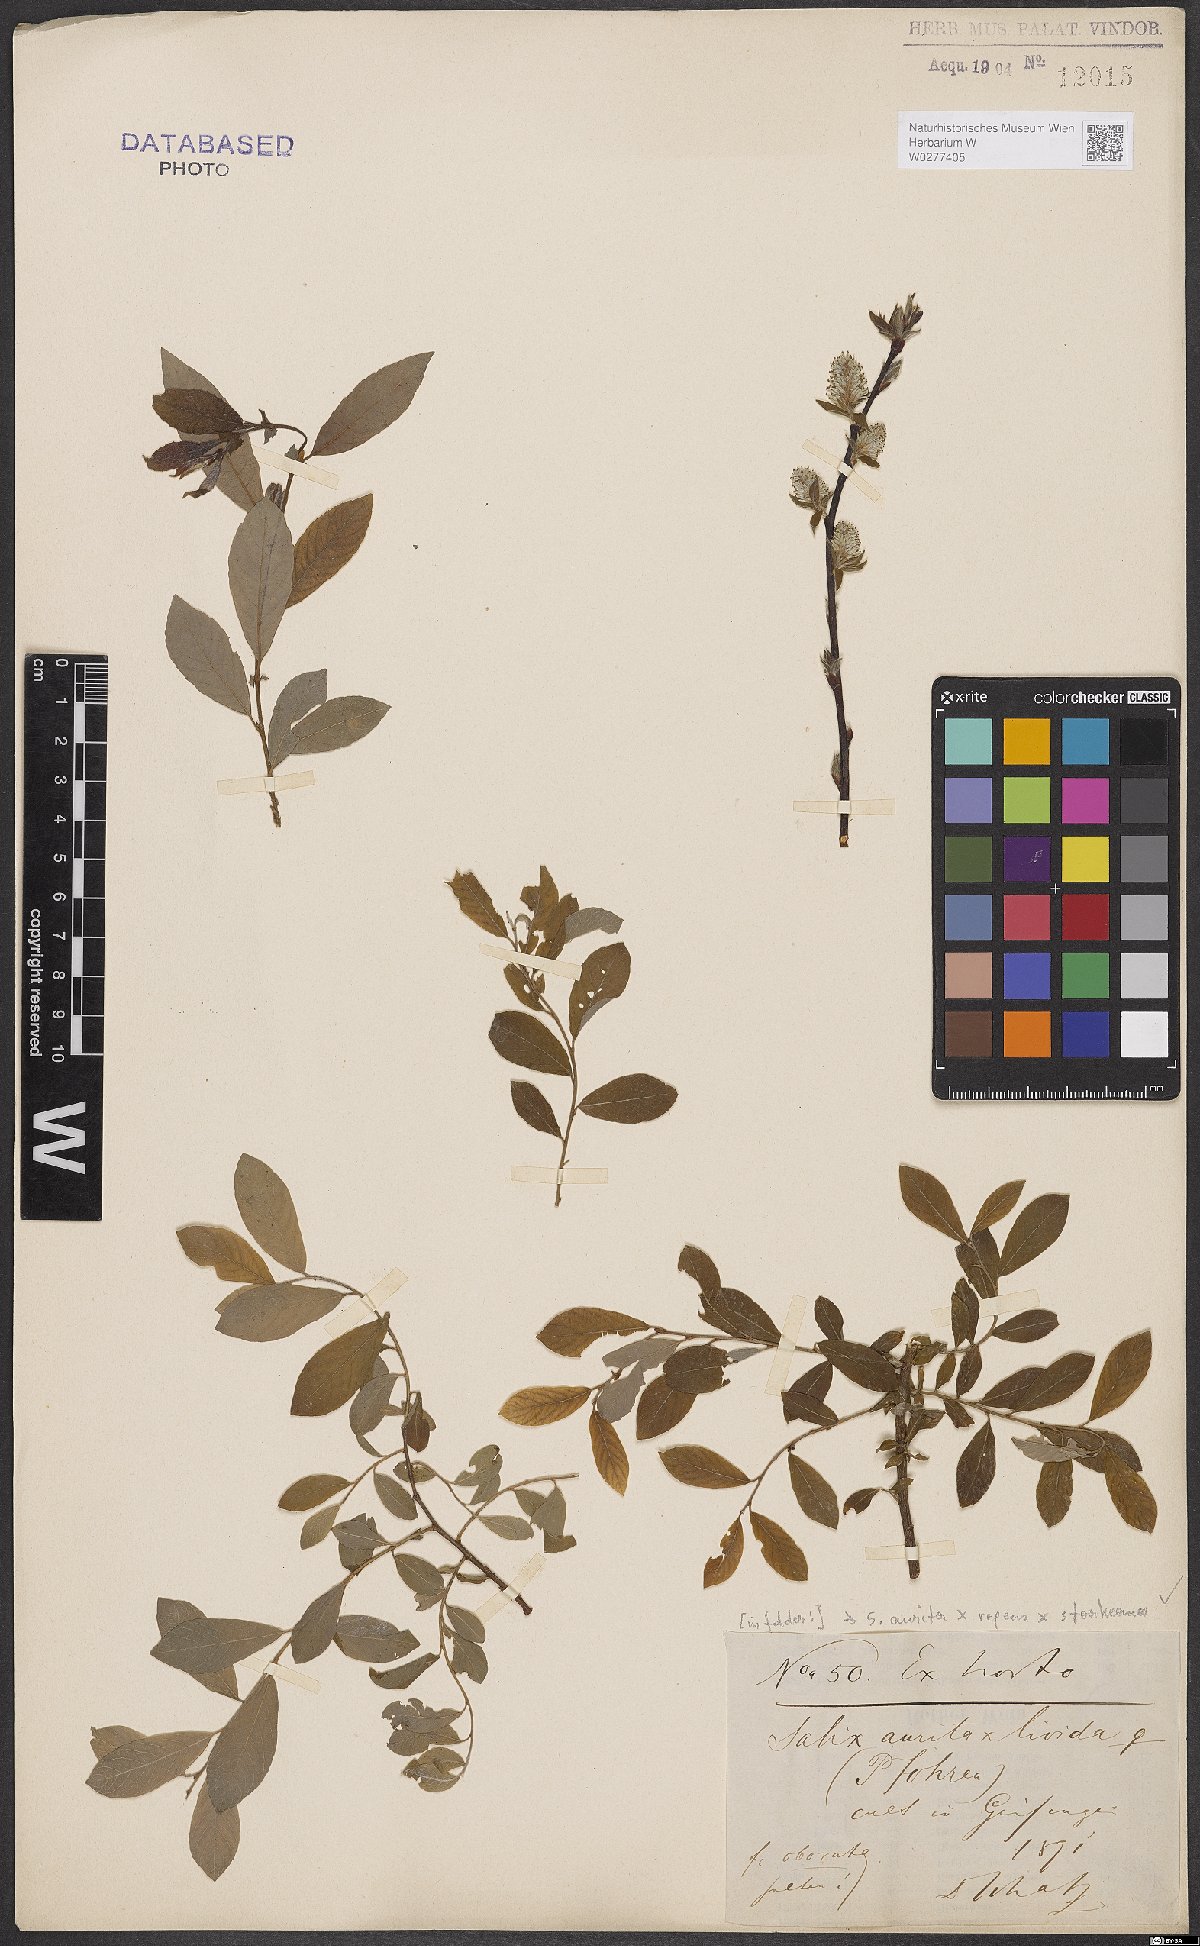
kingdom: Plantae
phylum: Tracheophyta
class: Magnoliopsida
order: Malpighiales
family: Salicaceae
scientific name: Salicaceae
